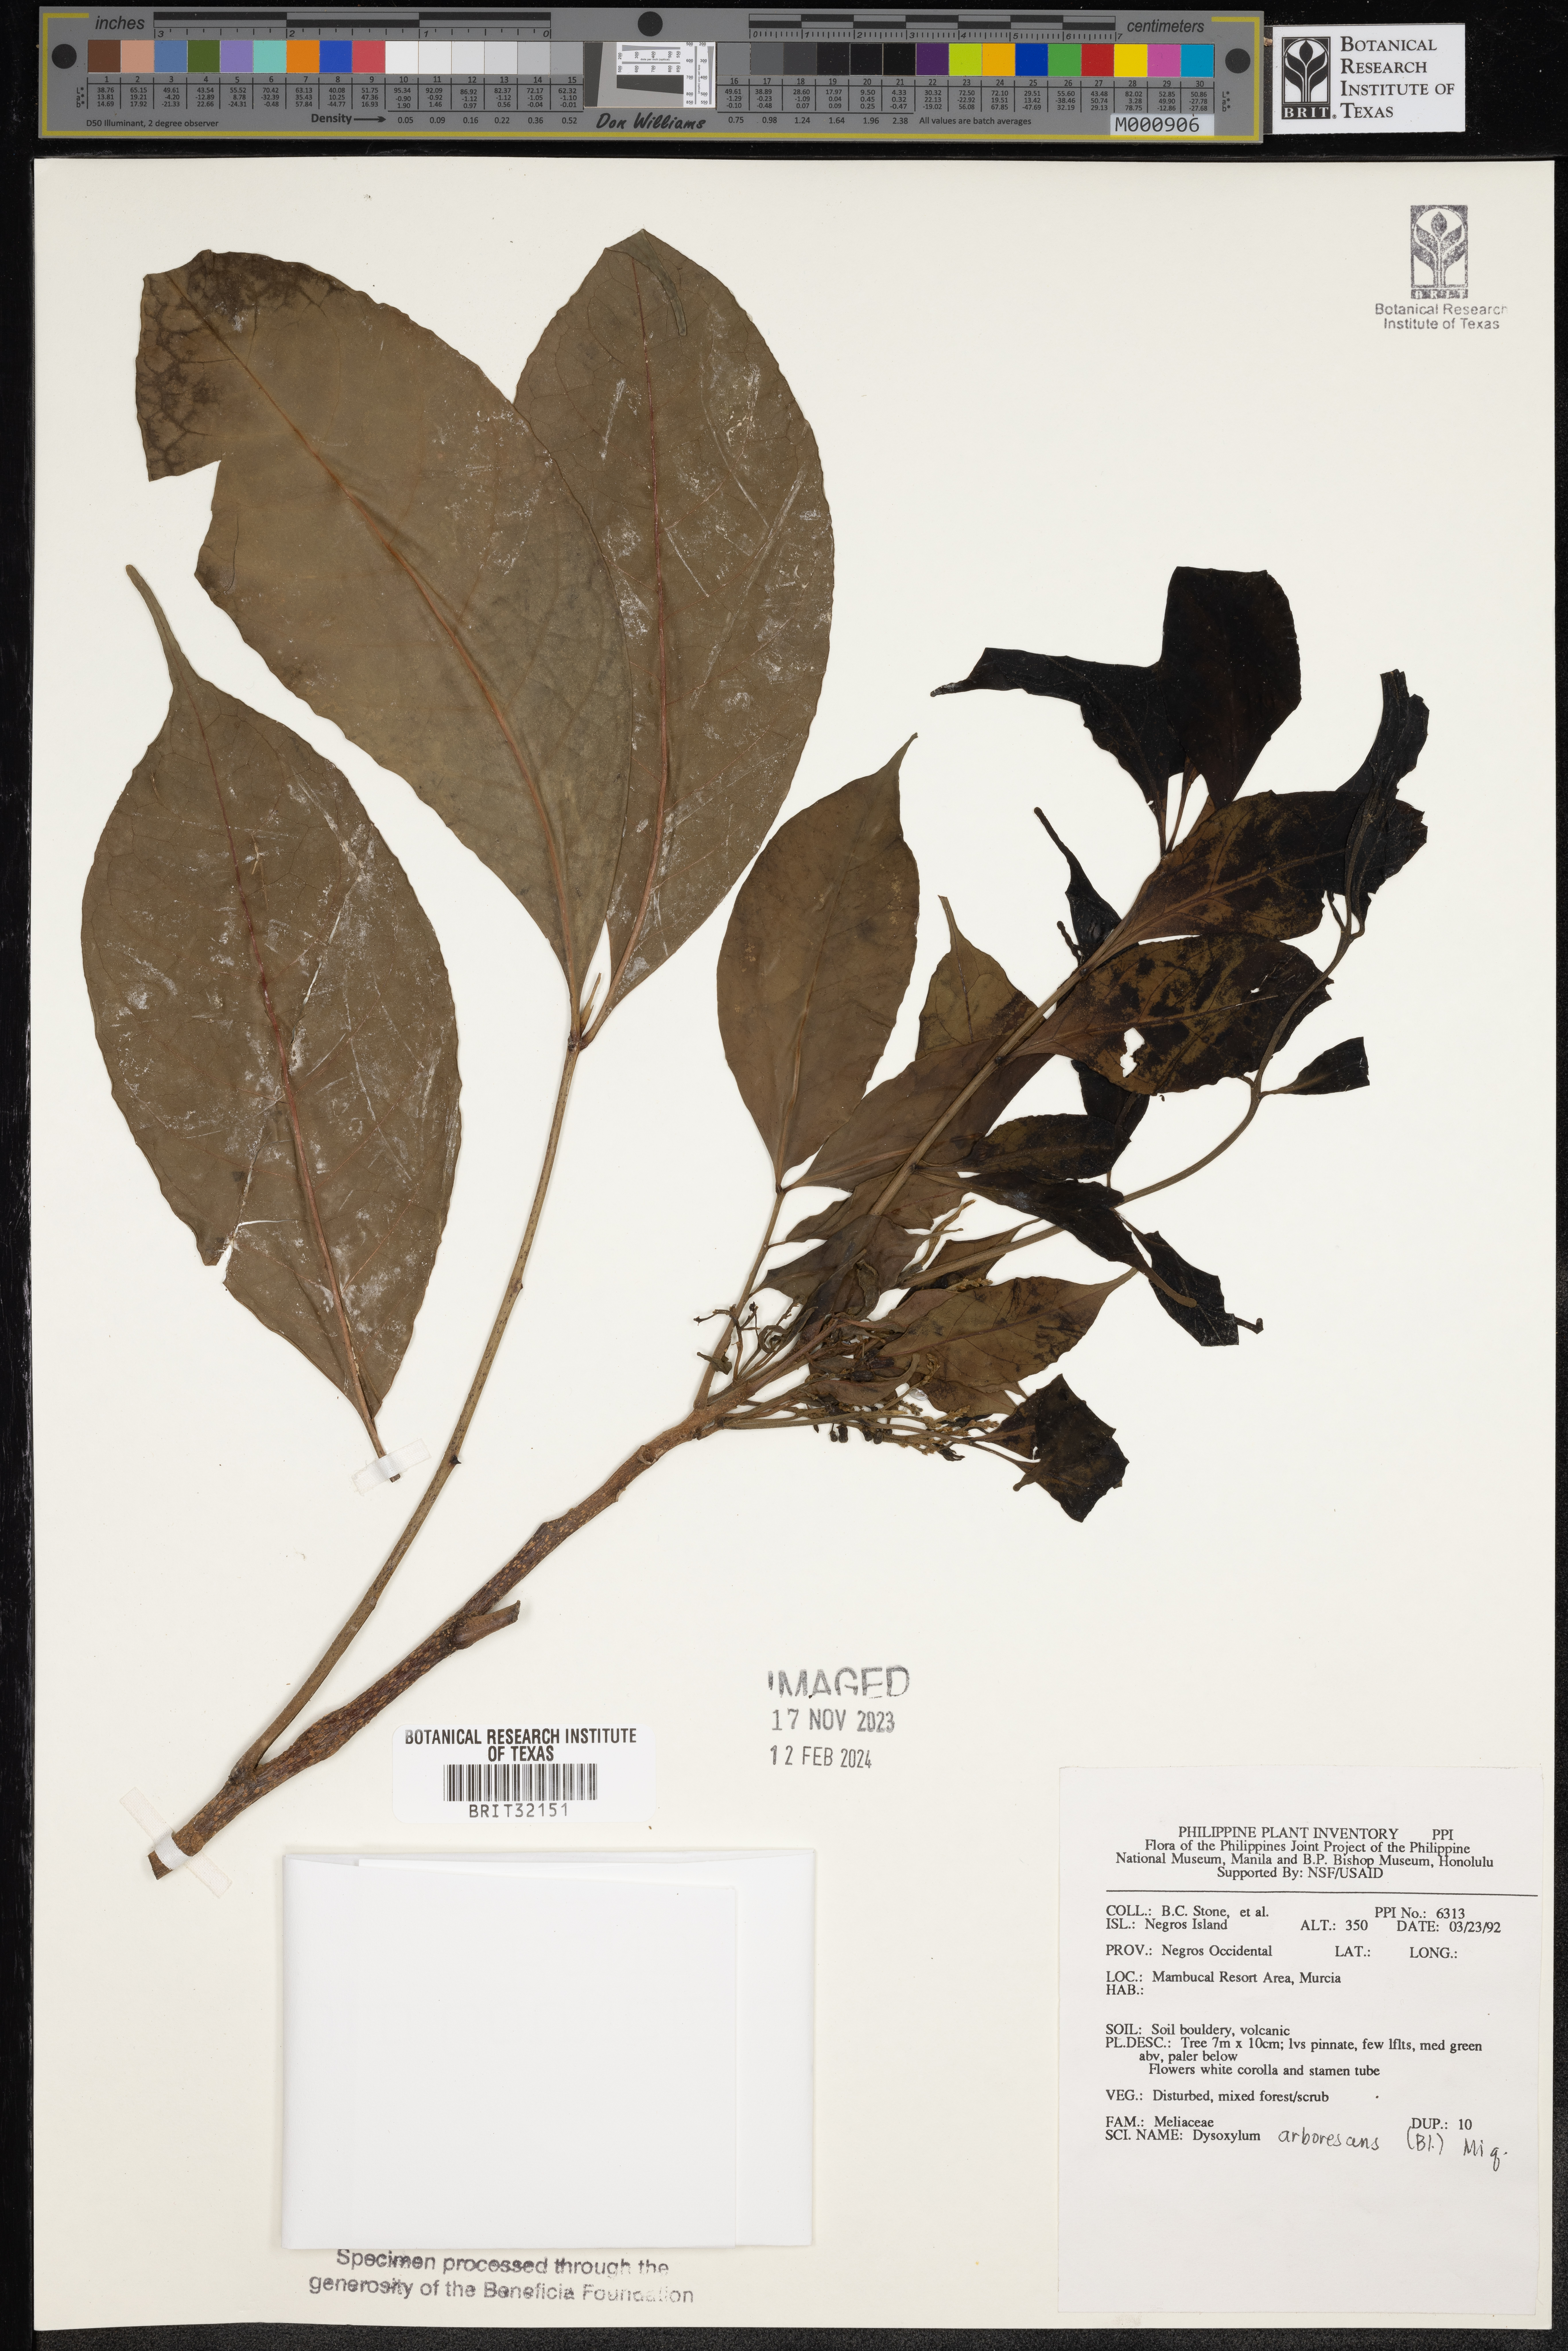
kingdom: Plantae
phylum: Tracheophyta
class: Magnoliopsida
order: Sapindales
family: Meliaceae
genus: Goniocheton
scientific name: Goniocheton arborescens
